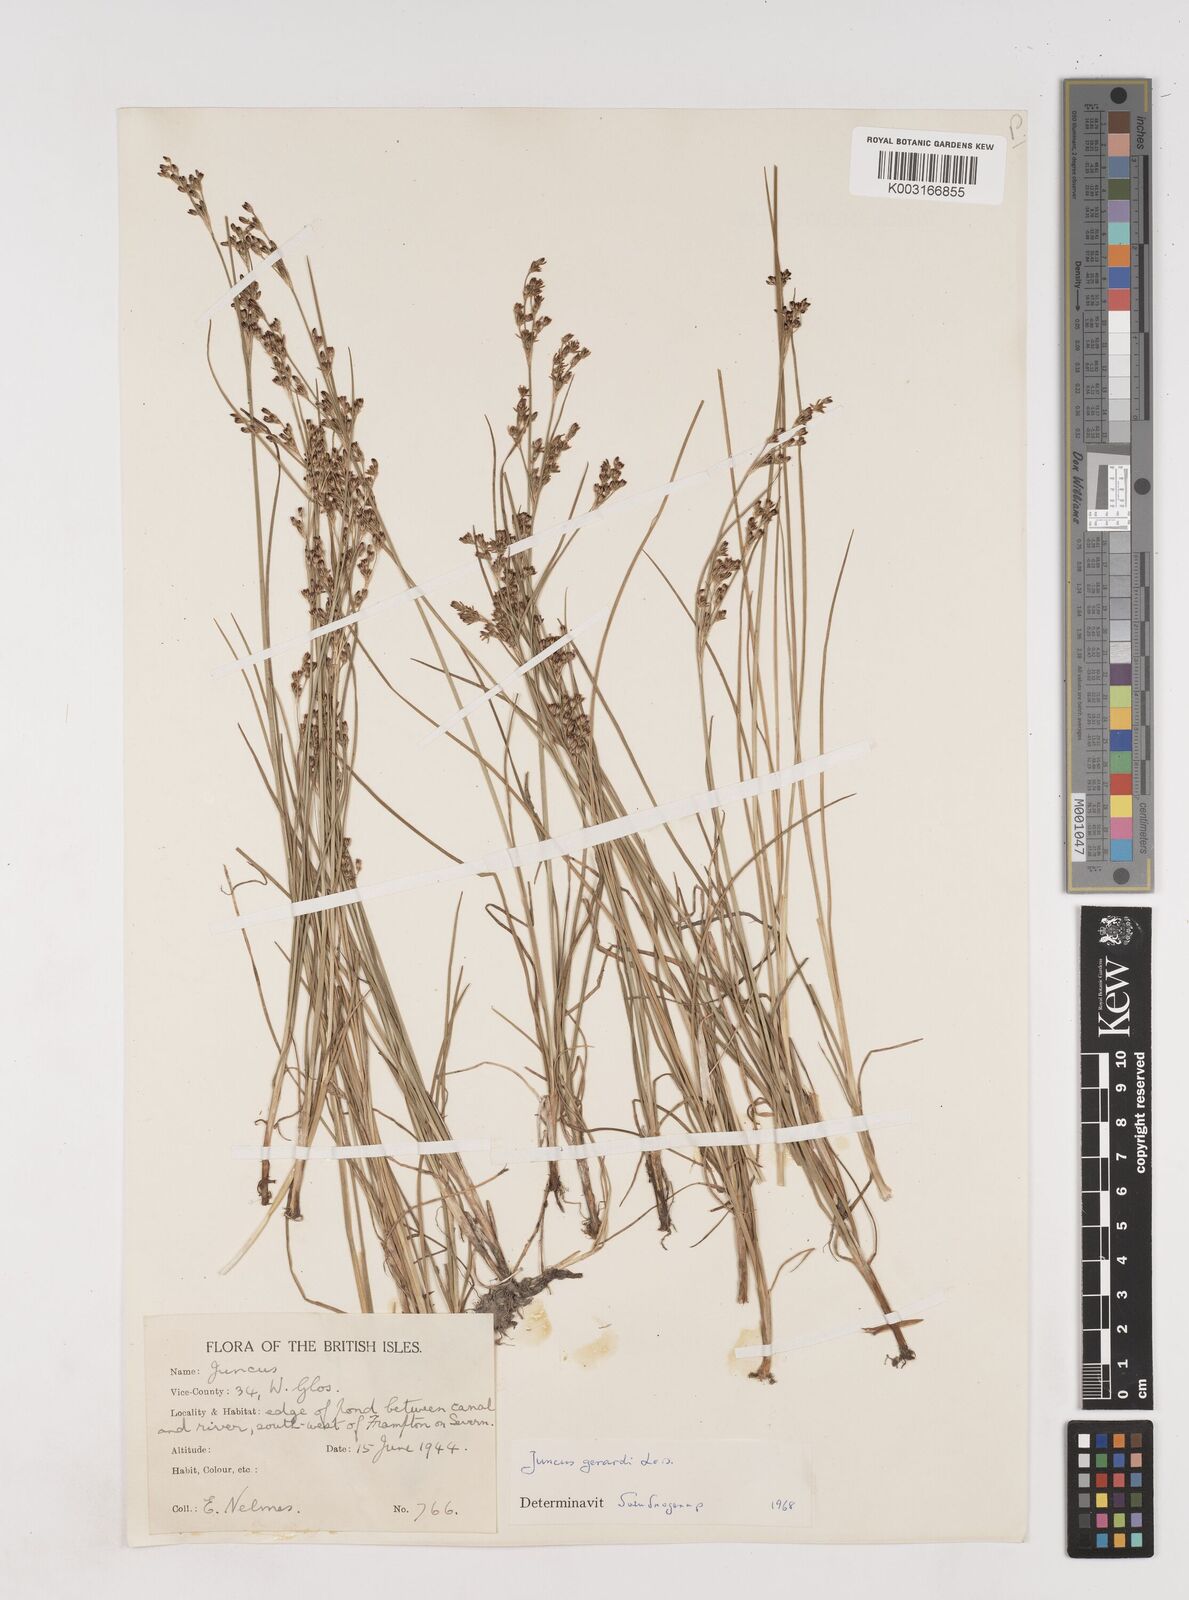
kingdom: Plantae
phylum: Tracheophyta
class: Liliopsida
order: Poales
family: Juncaceae
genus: Juncus
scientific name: Juncus gerardi
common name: Saltmarsh rush
